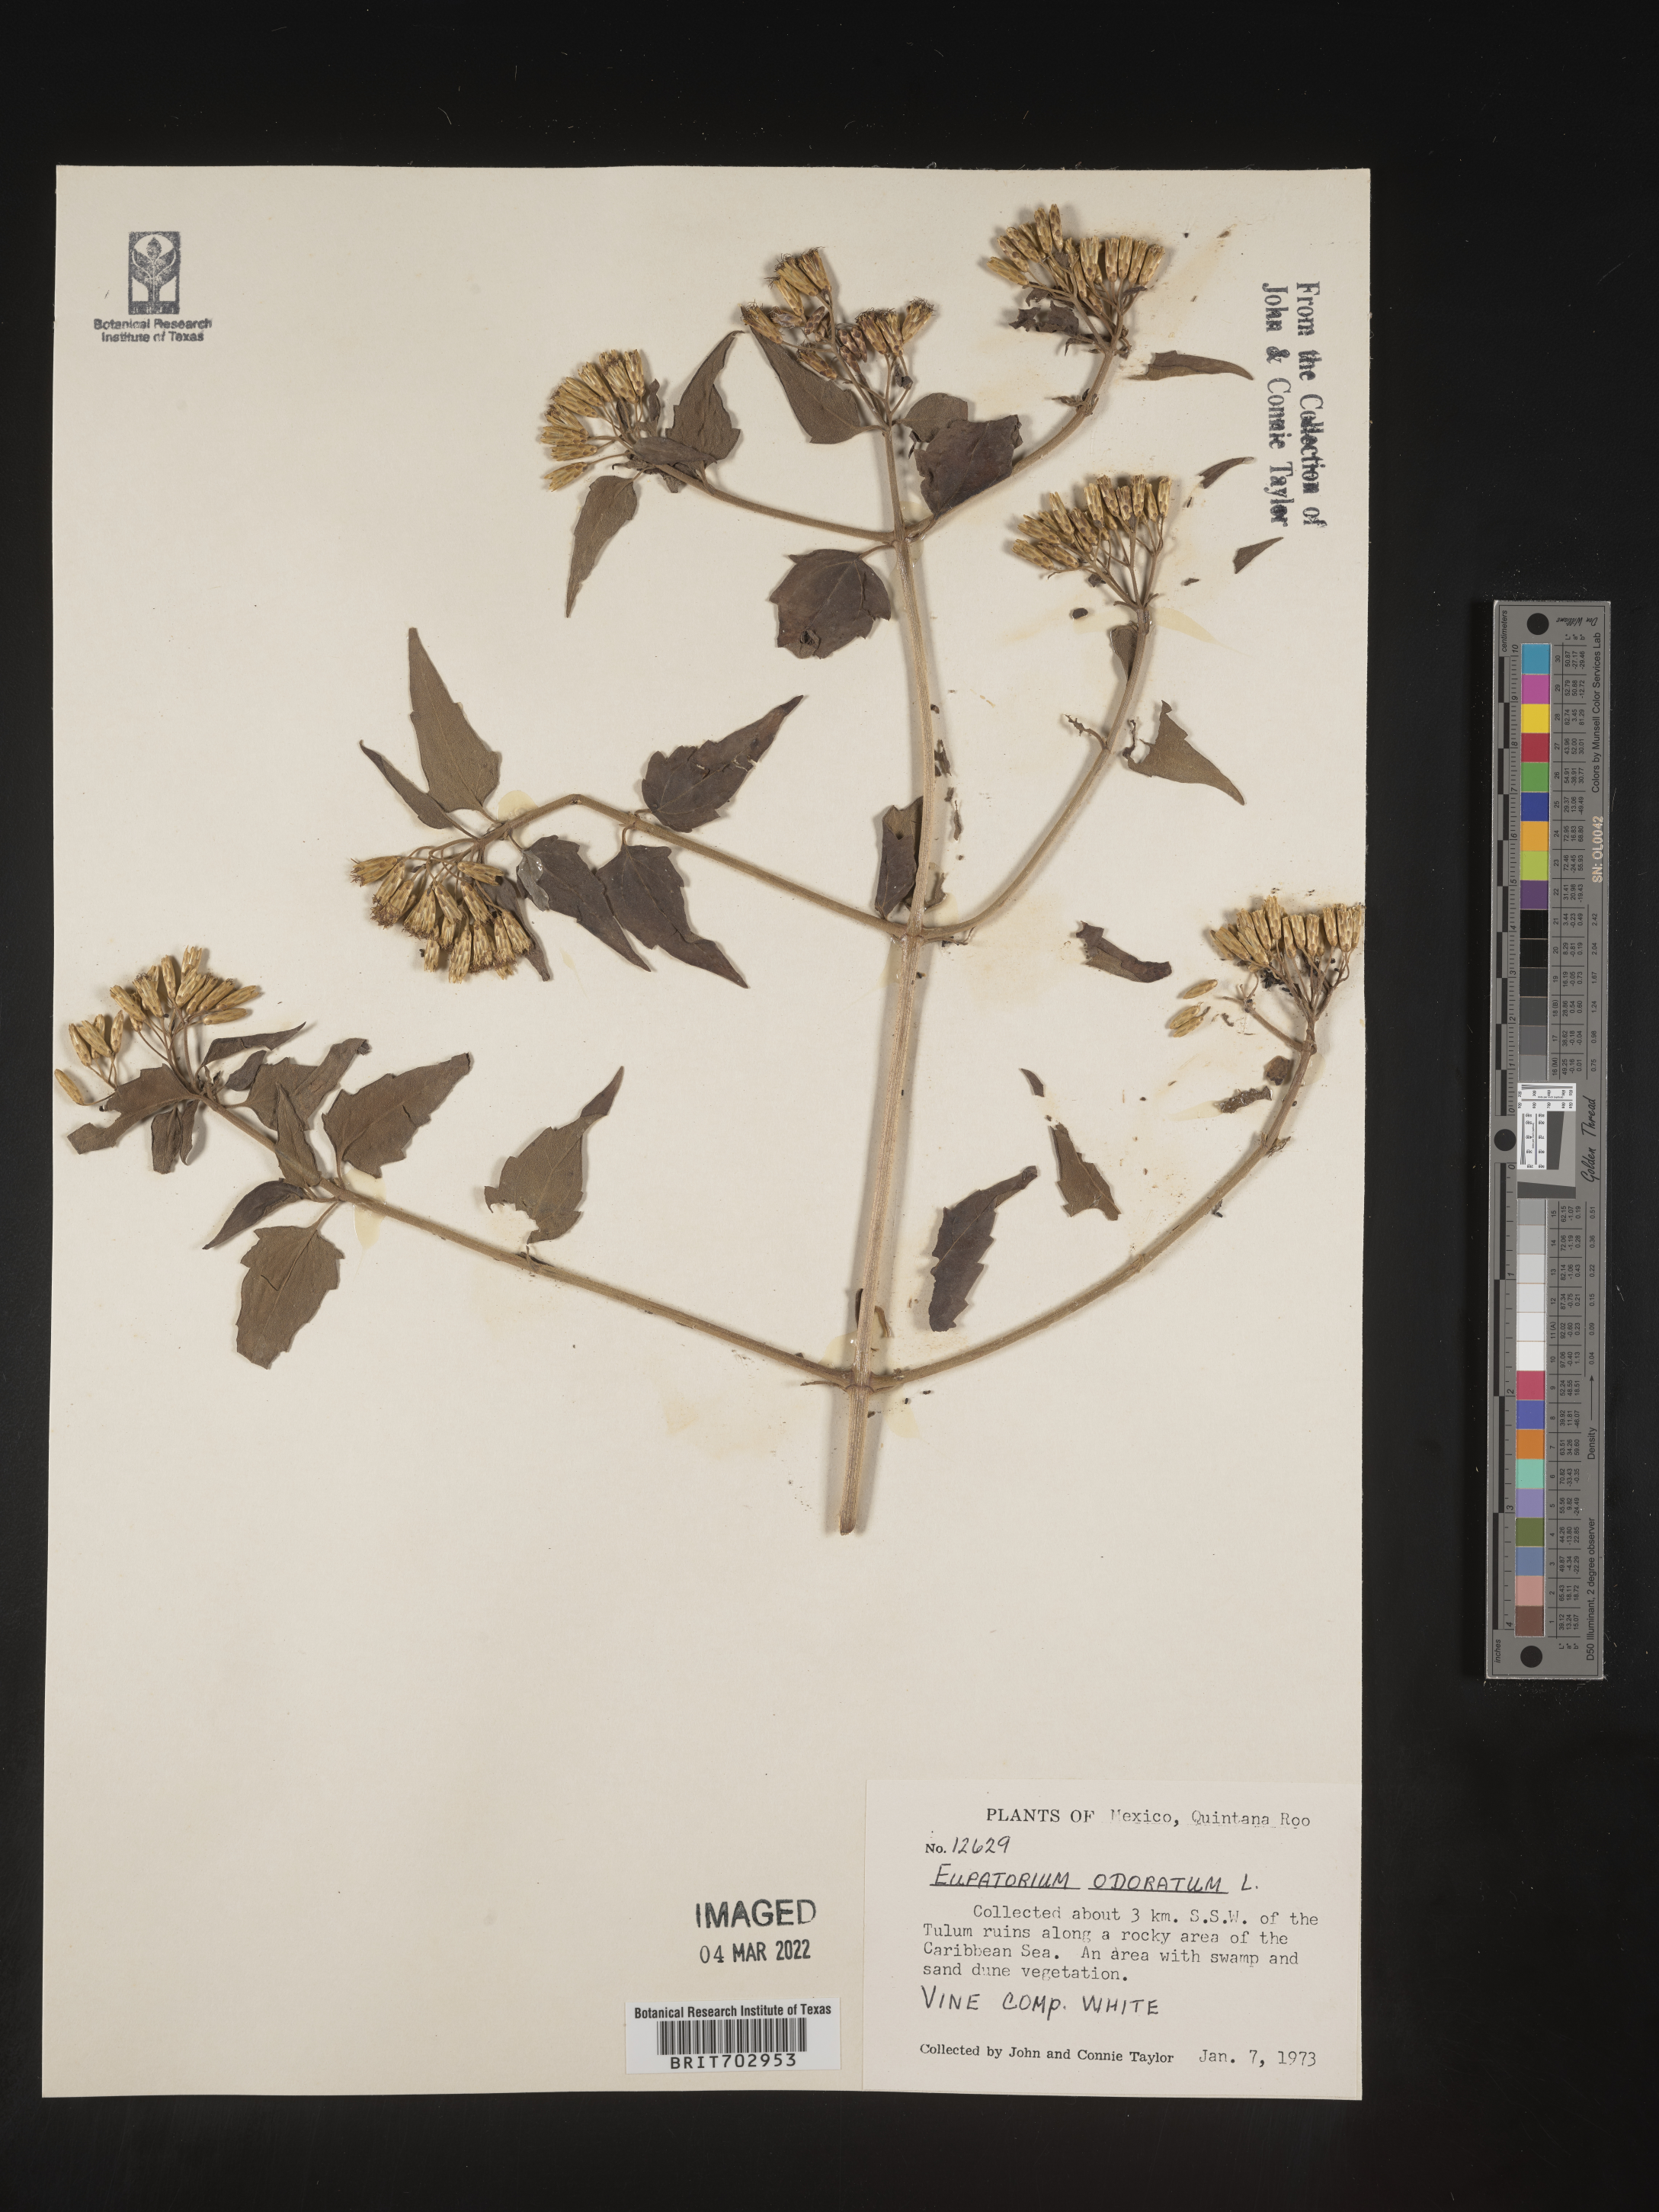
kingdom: Plantae
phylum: Tracheophyta
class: Magnoliopsida
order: Asterales
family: Asteraceae
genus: Eupatorium
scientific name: Eupatorium
